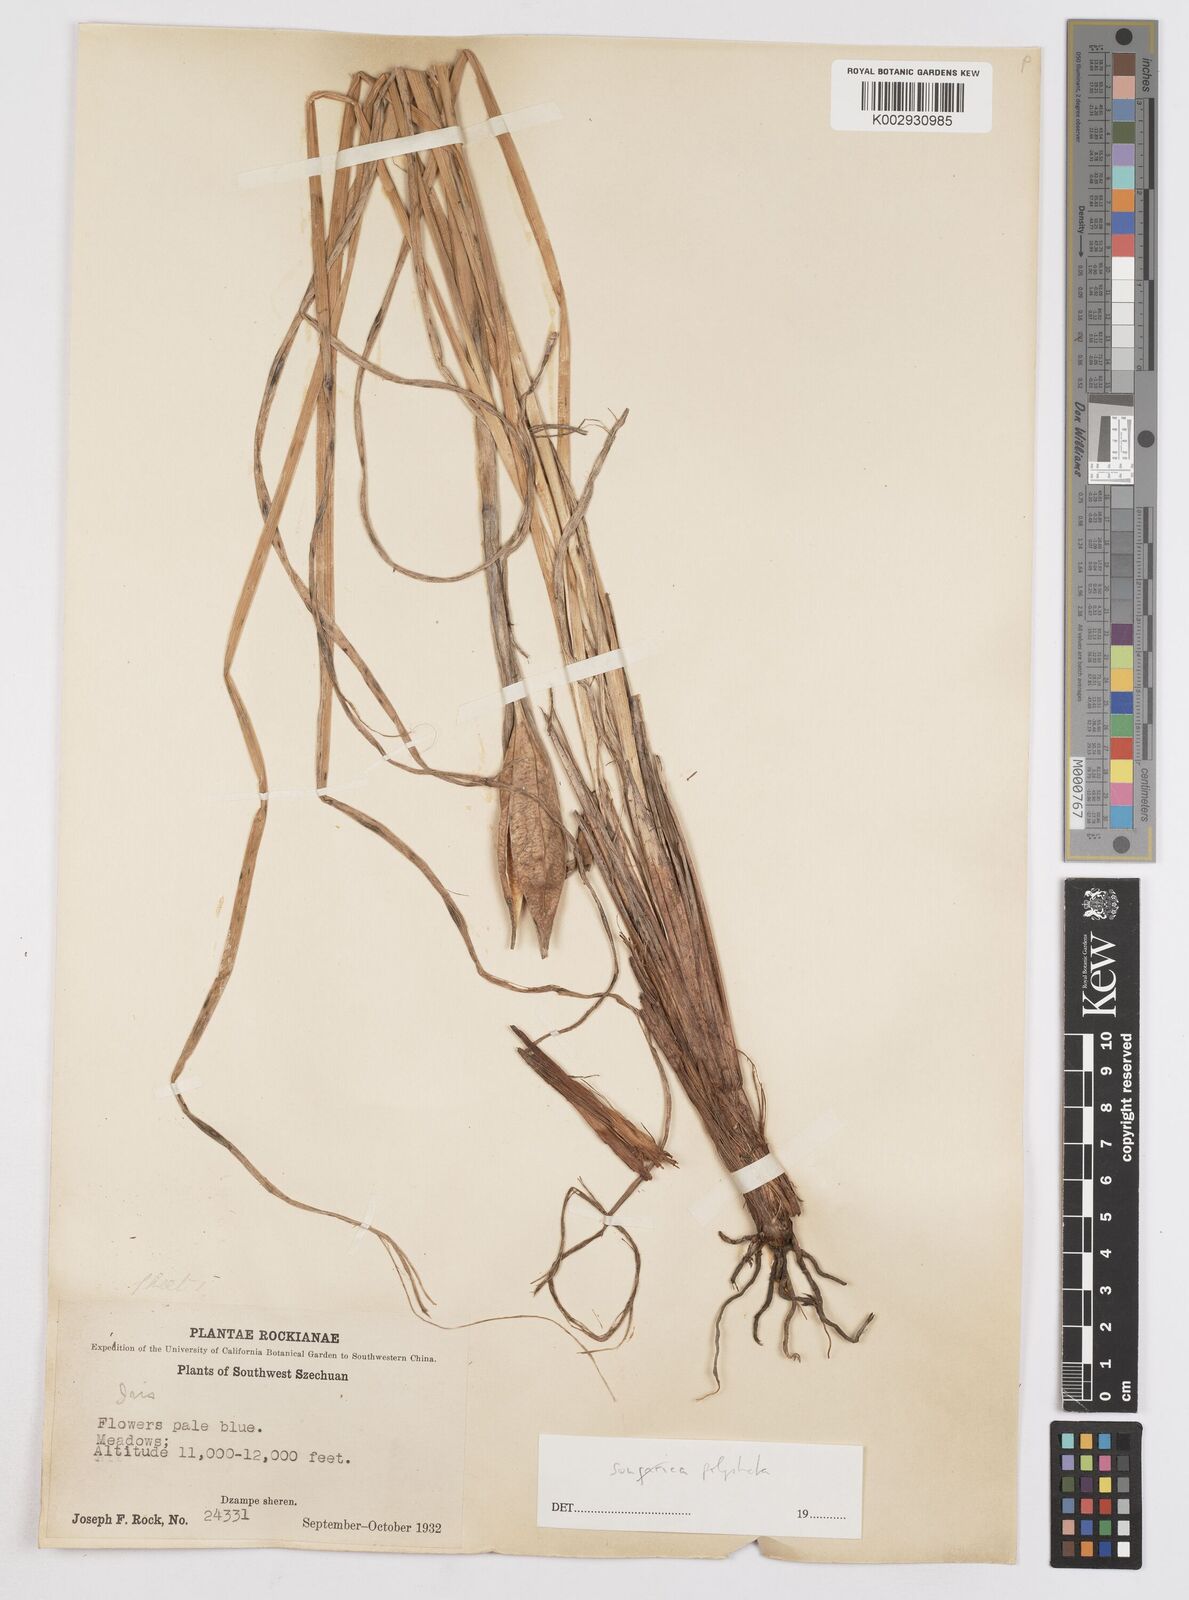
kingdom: Plantae
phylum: Tracheophyta
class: Liliopsida
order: Asparagales
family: Iridaceae
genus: Iris
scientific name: Iris farreri
